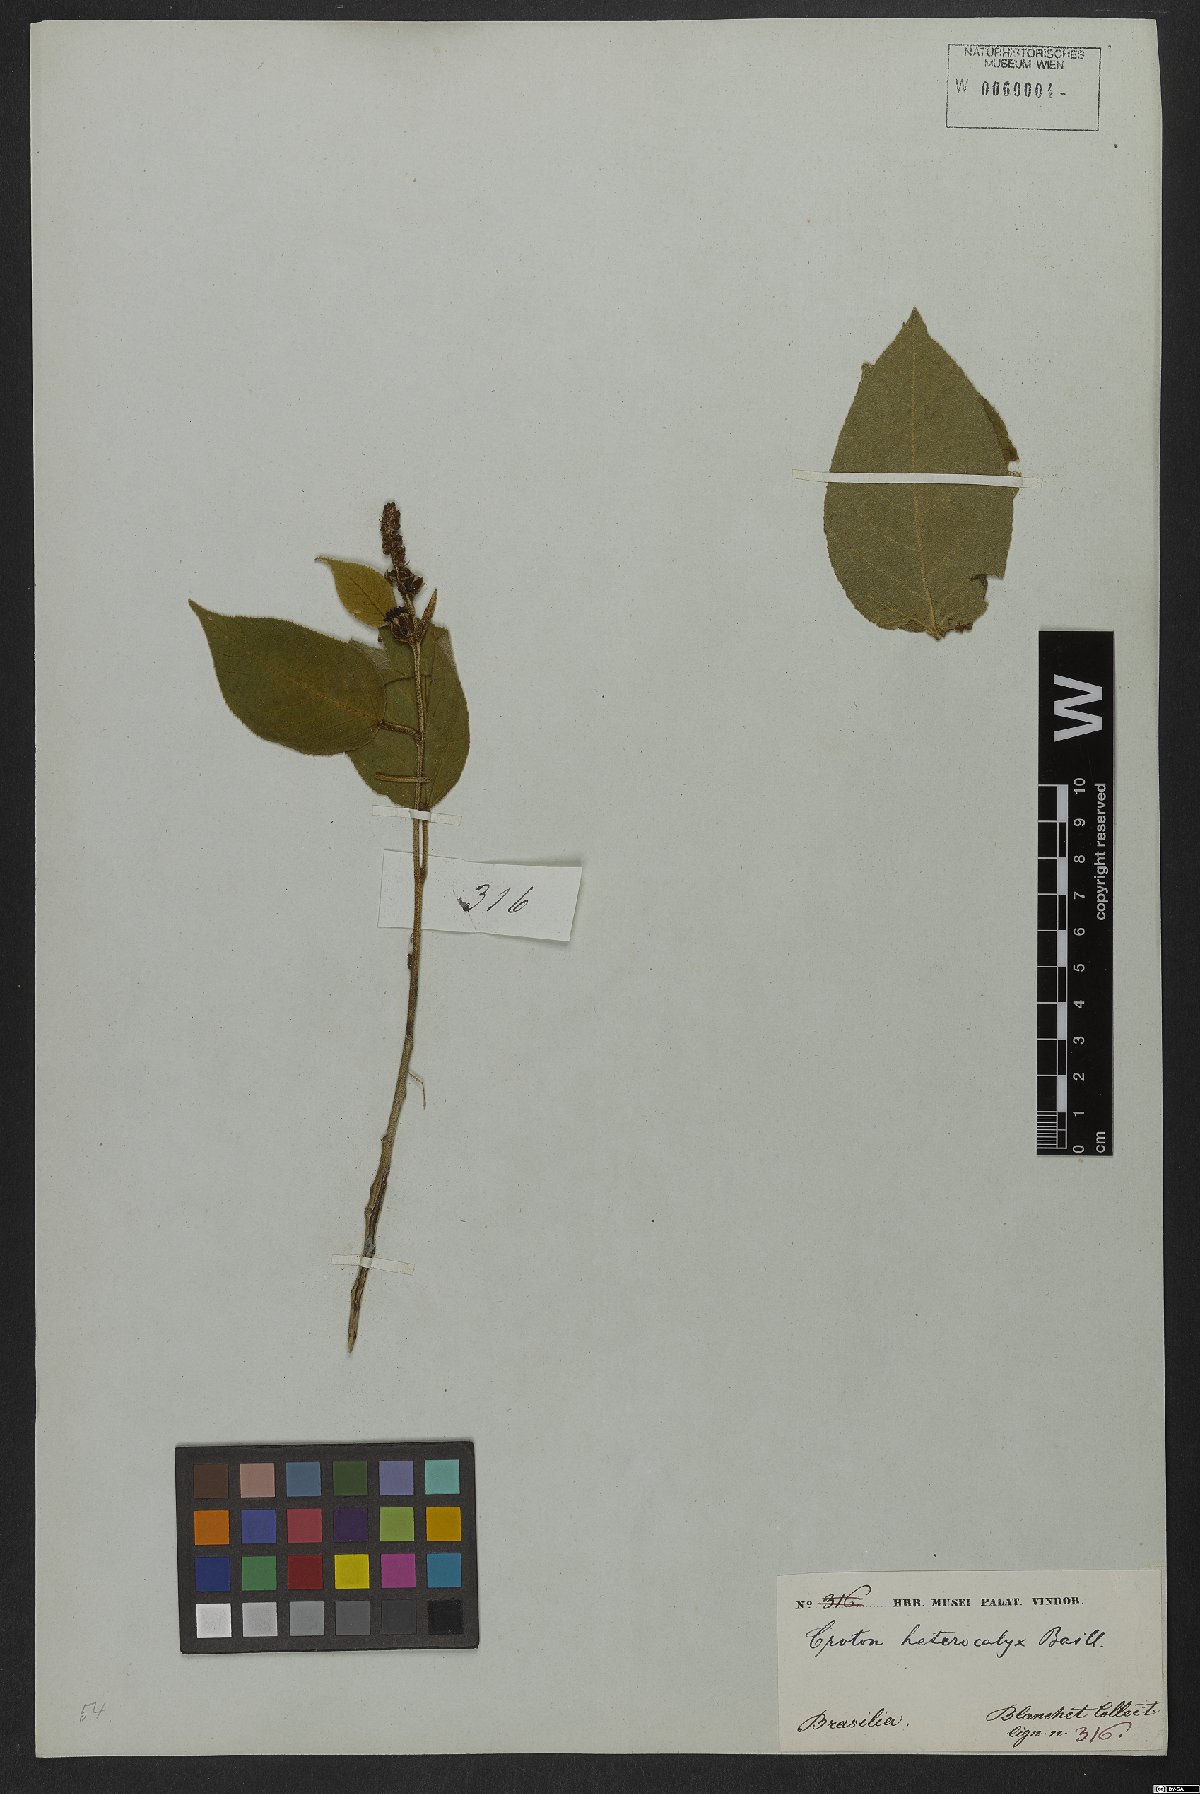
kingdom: Plantae
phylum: Tracheophyta
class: Magnoliopsida
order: Malpighiales
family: Euphorbiaceae
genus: Croton
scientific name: Croton heterocalyx
